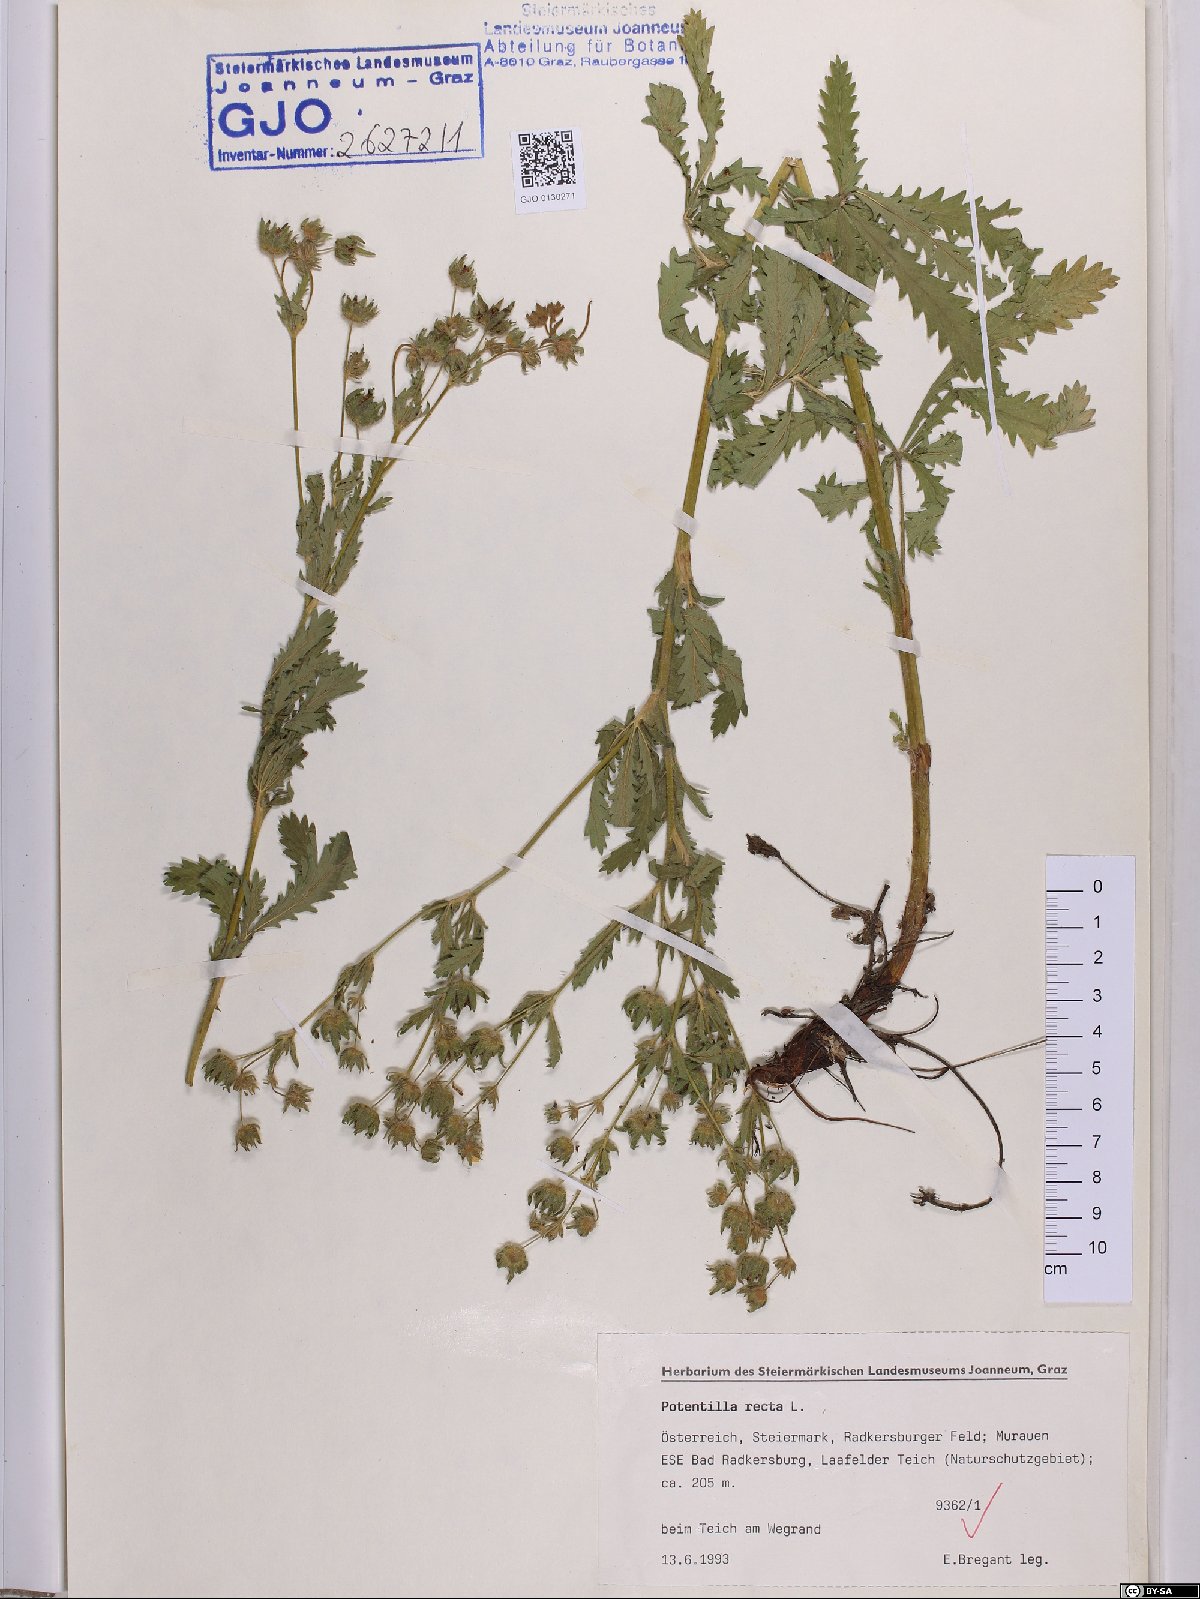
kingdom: Plantae
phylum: Tracheophyta
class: Magnoliopsida
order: Rosales
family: Rosaceae
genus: Potentilla
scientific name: Potentilla recta
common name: Sulphur cinquefoil
